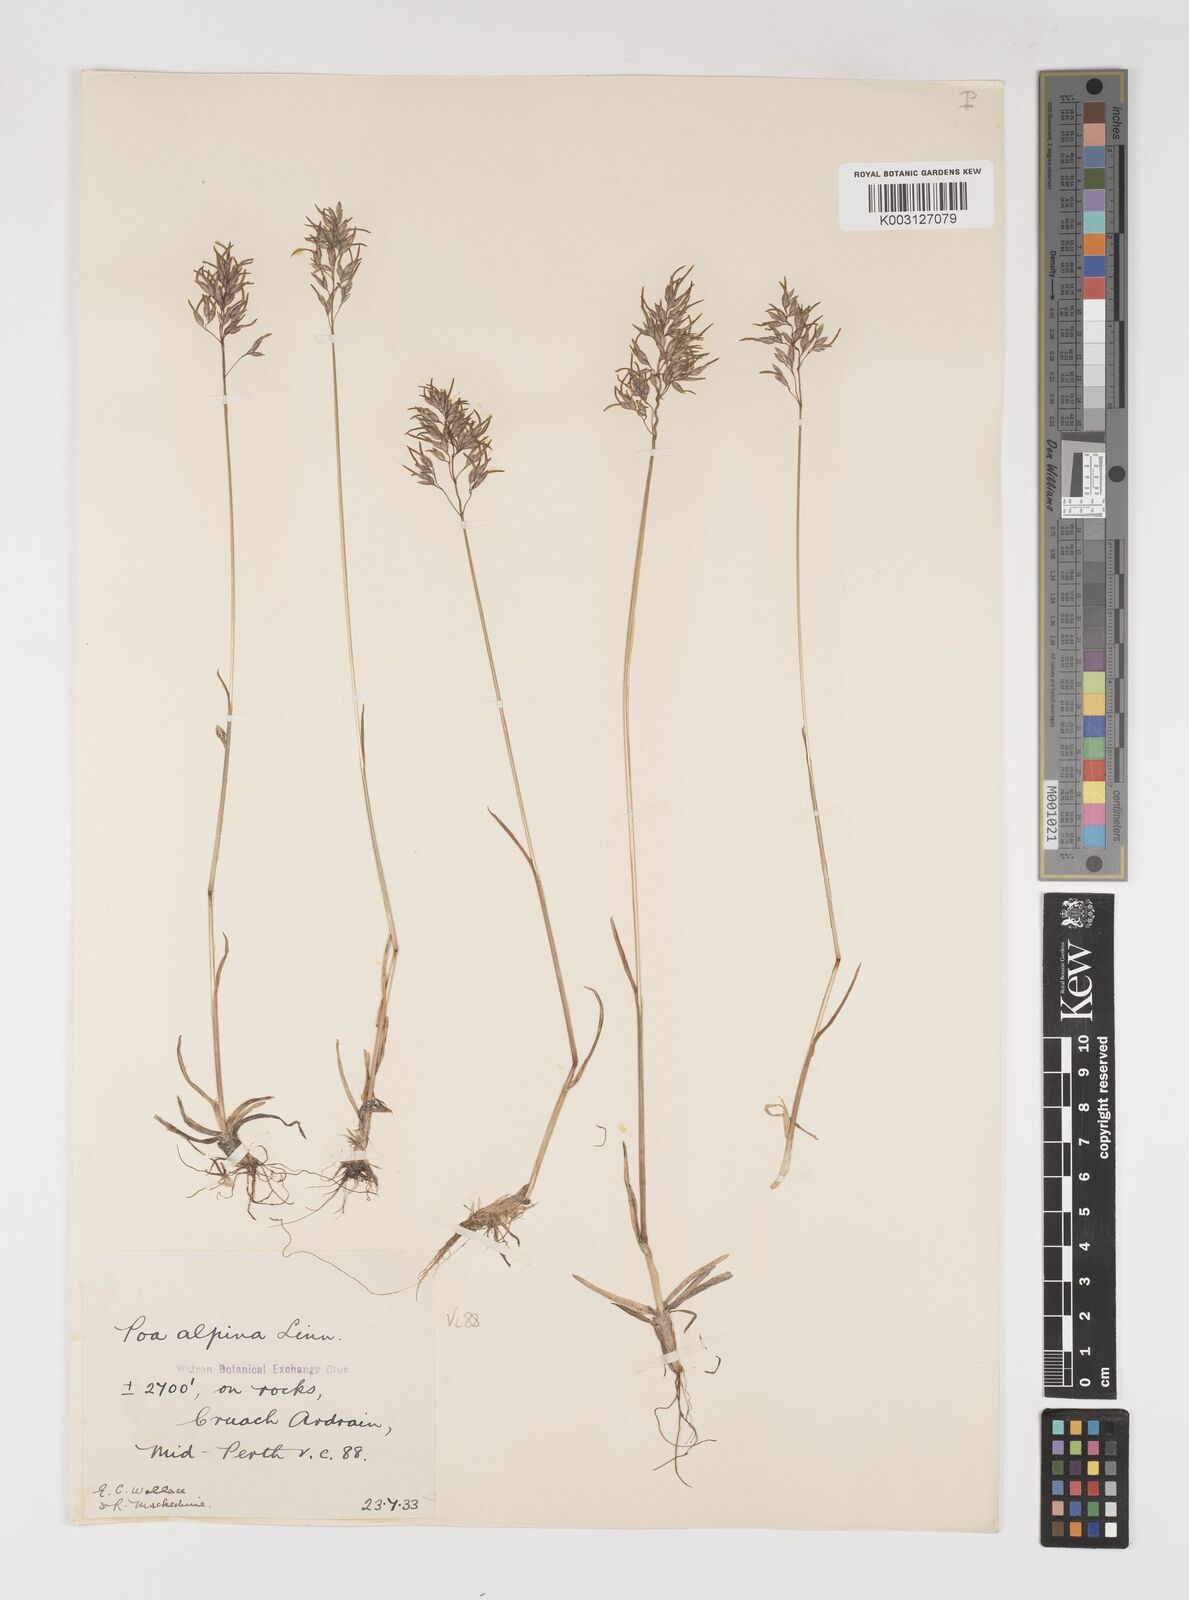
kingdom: Plantae
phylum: Tracheophyta
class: Liliopsida
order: Poales
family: Poaceae
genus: Poa
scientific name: Poa alpina
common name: Alpine bluegrass
